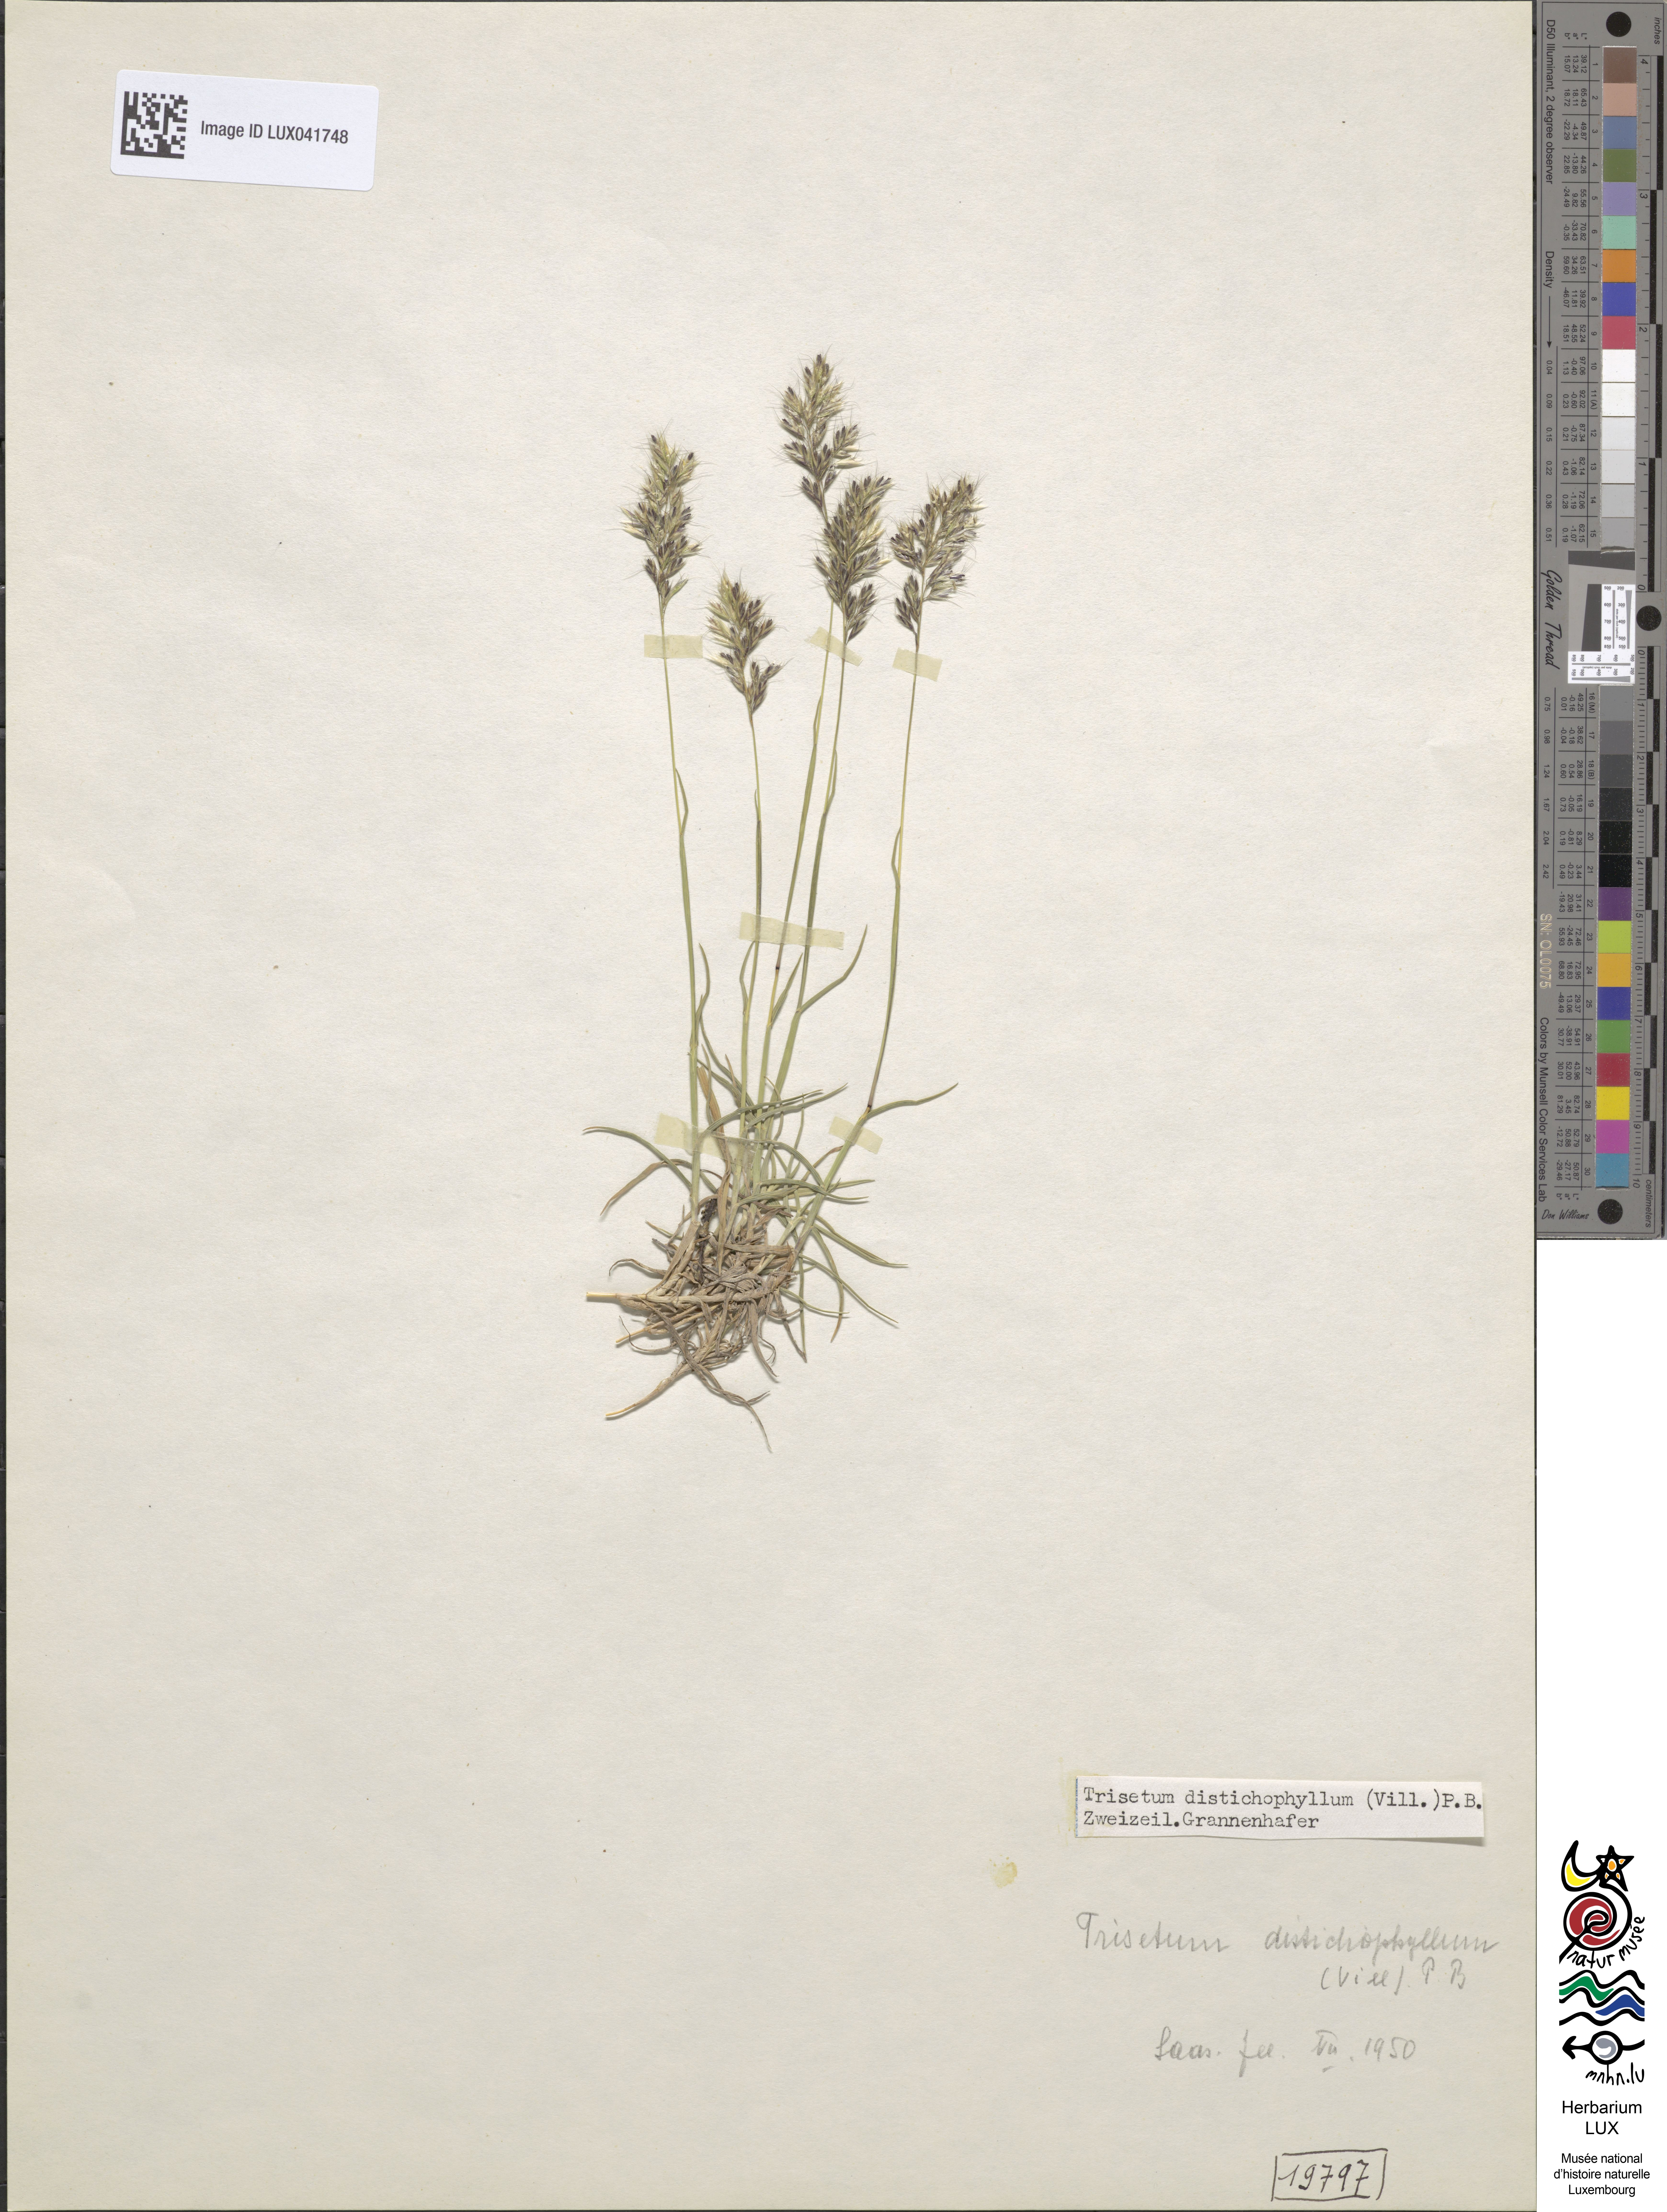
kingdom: Plantae
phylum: Tracheophyta
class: Liliopsida
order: Poales
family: Poaceae
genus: Acrospelion
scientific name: Acrospelion distichophyllum
